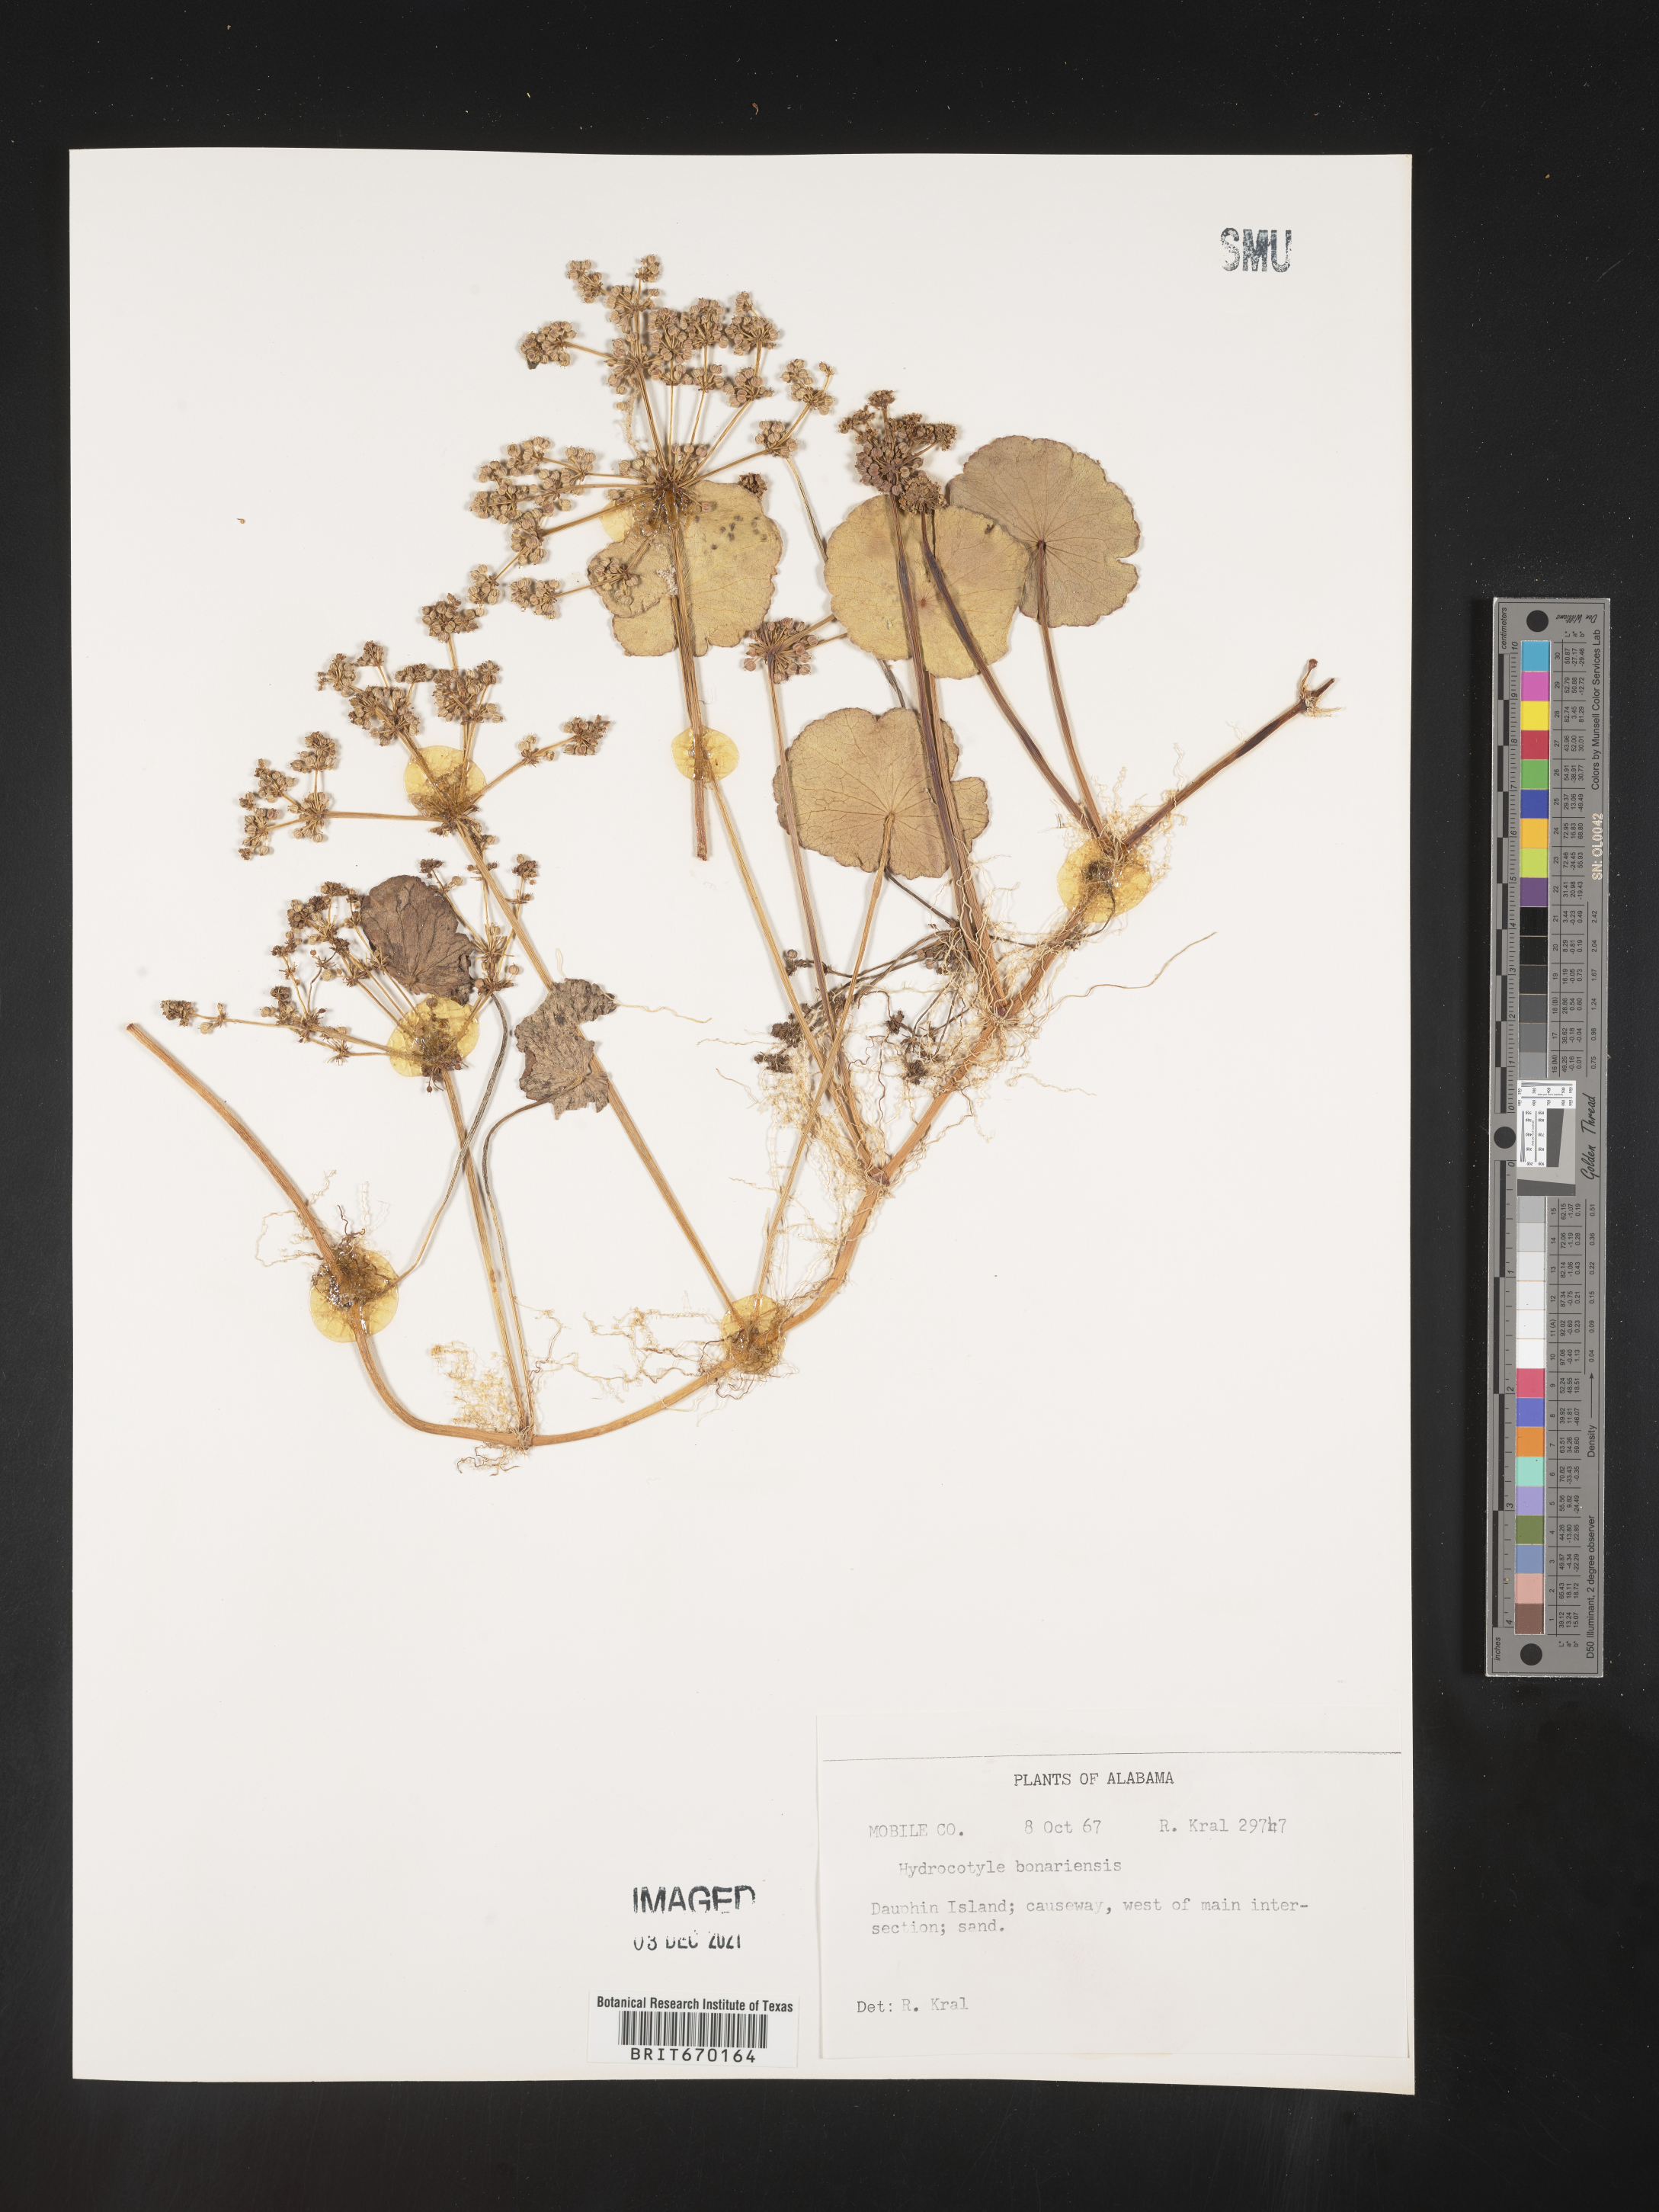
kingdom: Plantae
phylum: Tracheophyta
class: Magnoliopsida
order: Apiales
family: Araliaceae
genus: Hydrocotyle
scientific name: Hydrocotyle bonariensis
